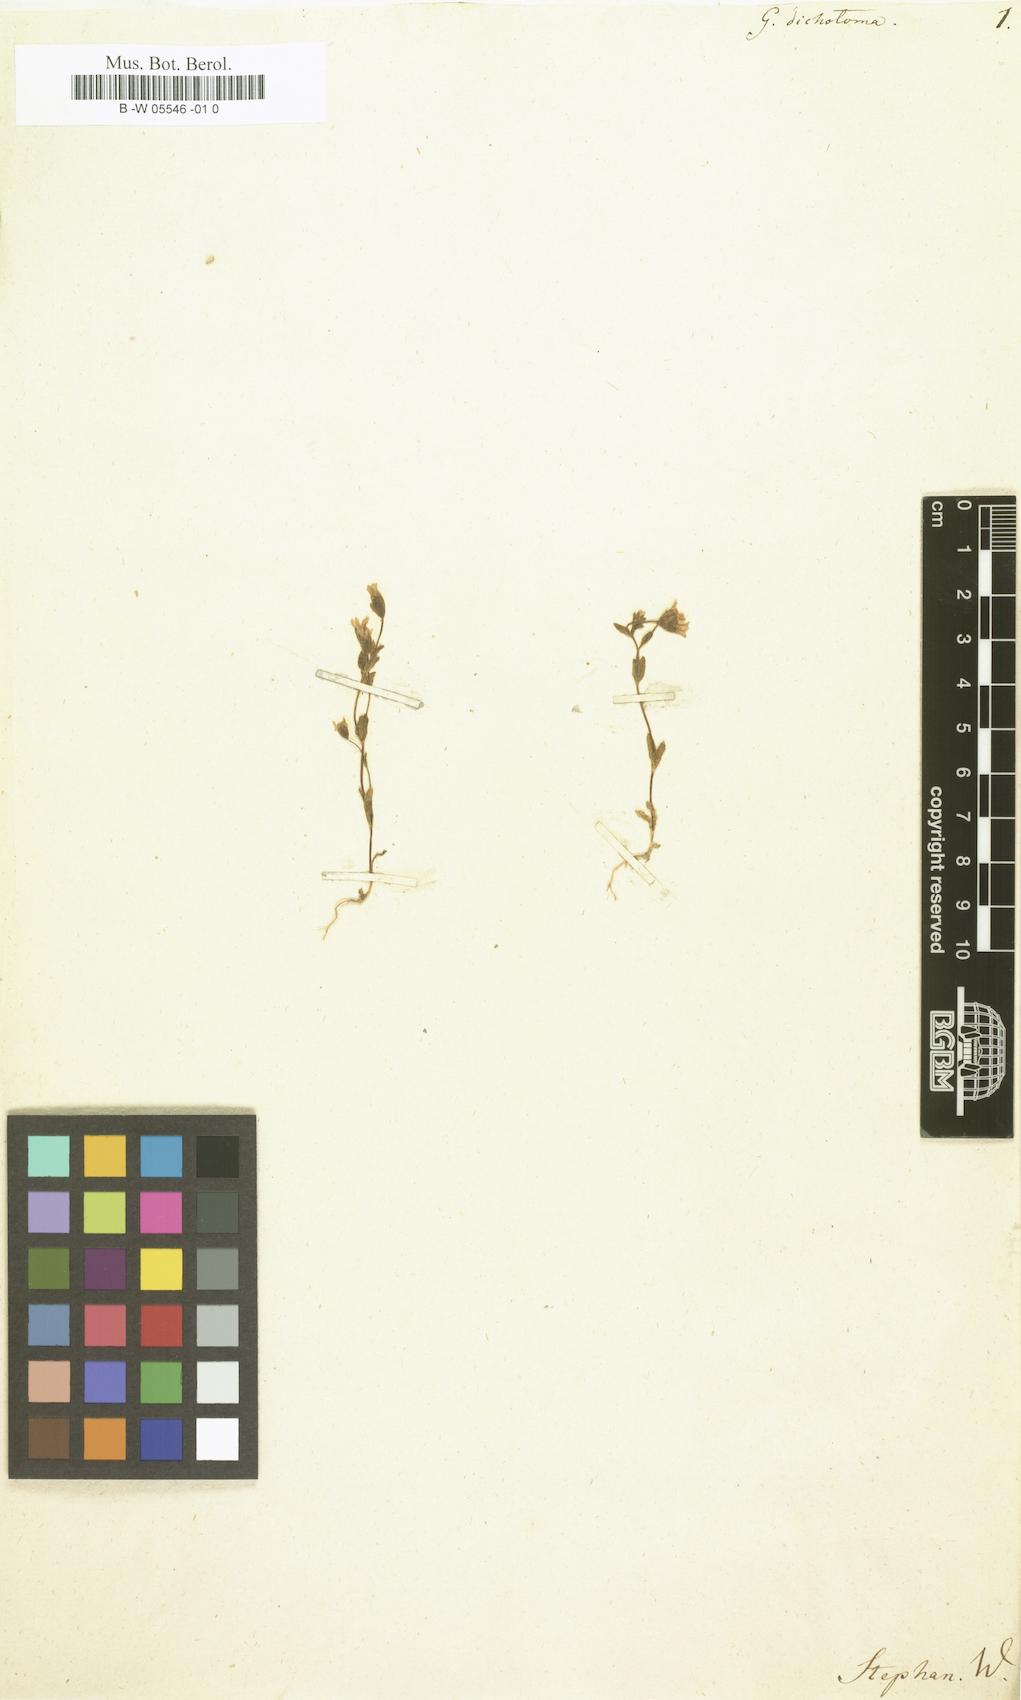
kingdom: Plantae
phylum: Tracheophyta
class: Magnoliopsida
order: Gentianales
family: Gentianaceae
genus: Comastoma
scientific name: Comastoma tenellum
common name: Dane's dwarf gentian
